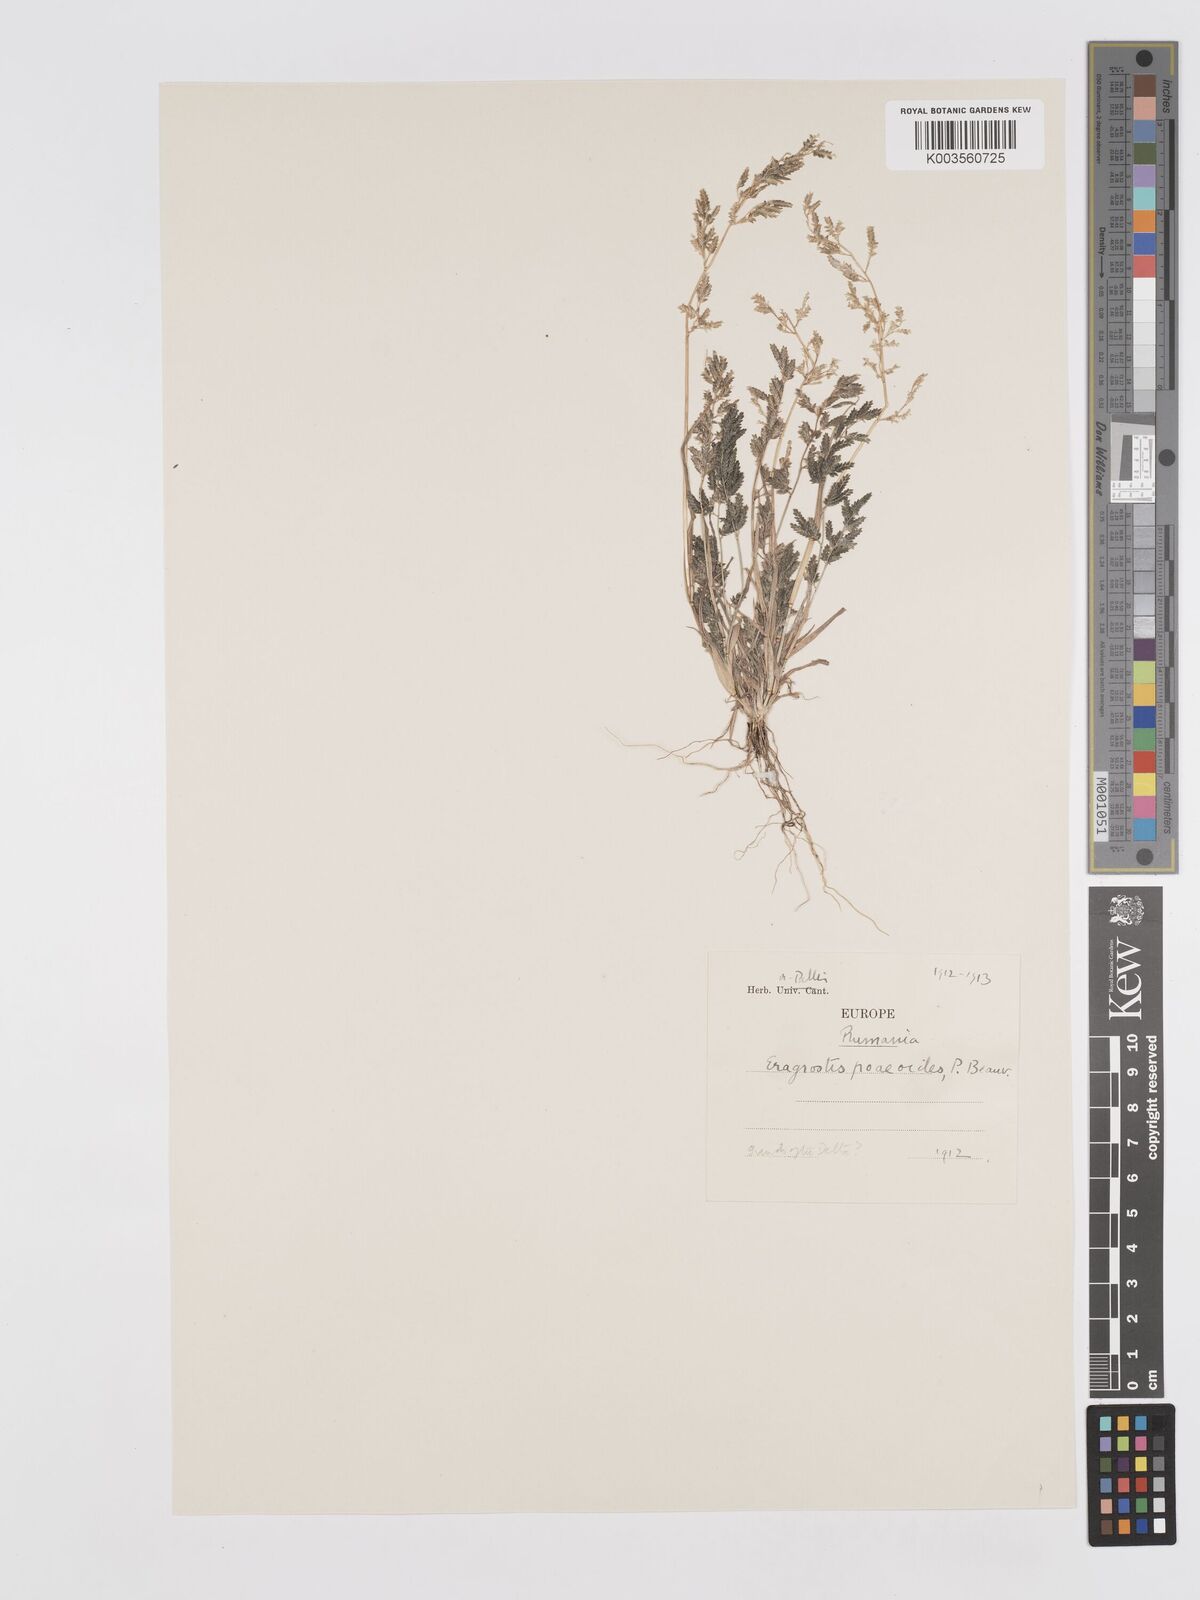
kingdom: Plantae
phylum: Tracheophyta
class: Liliopsida
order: Poales
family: Poaceae
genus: Eragrostis
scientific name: Eragrostis minor
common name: Small love-grass
